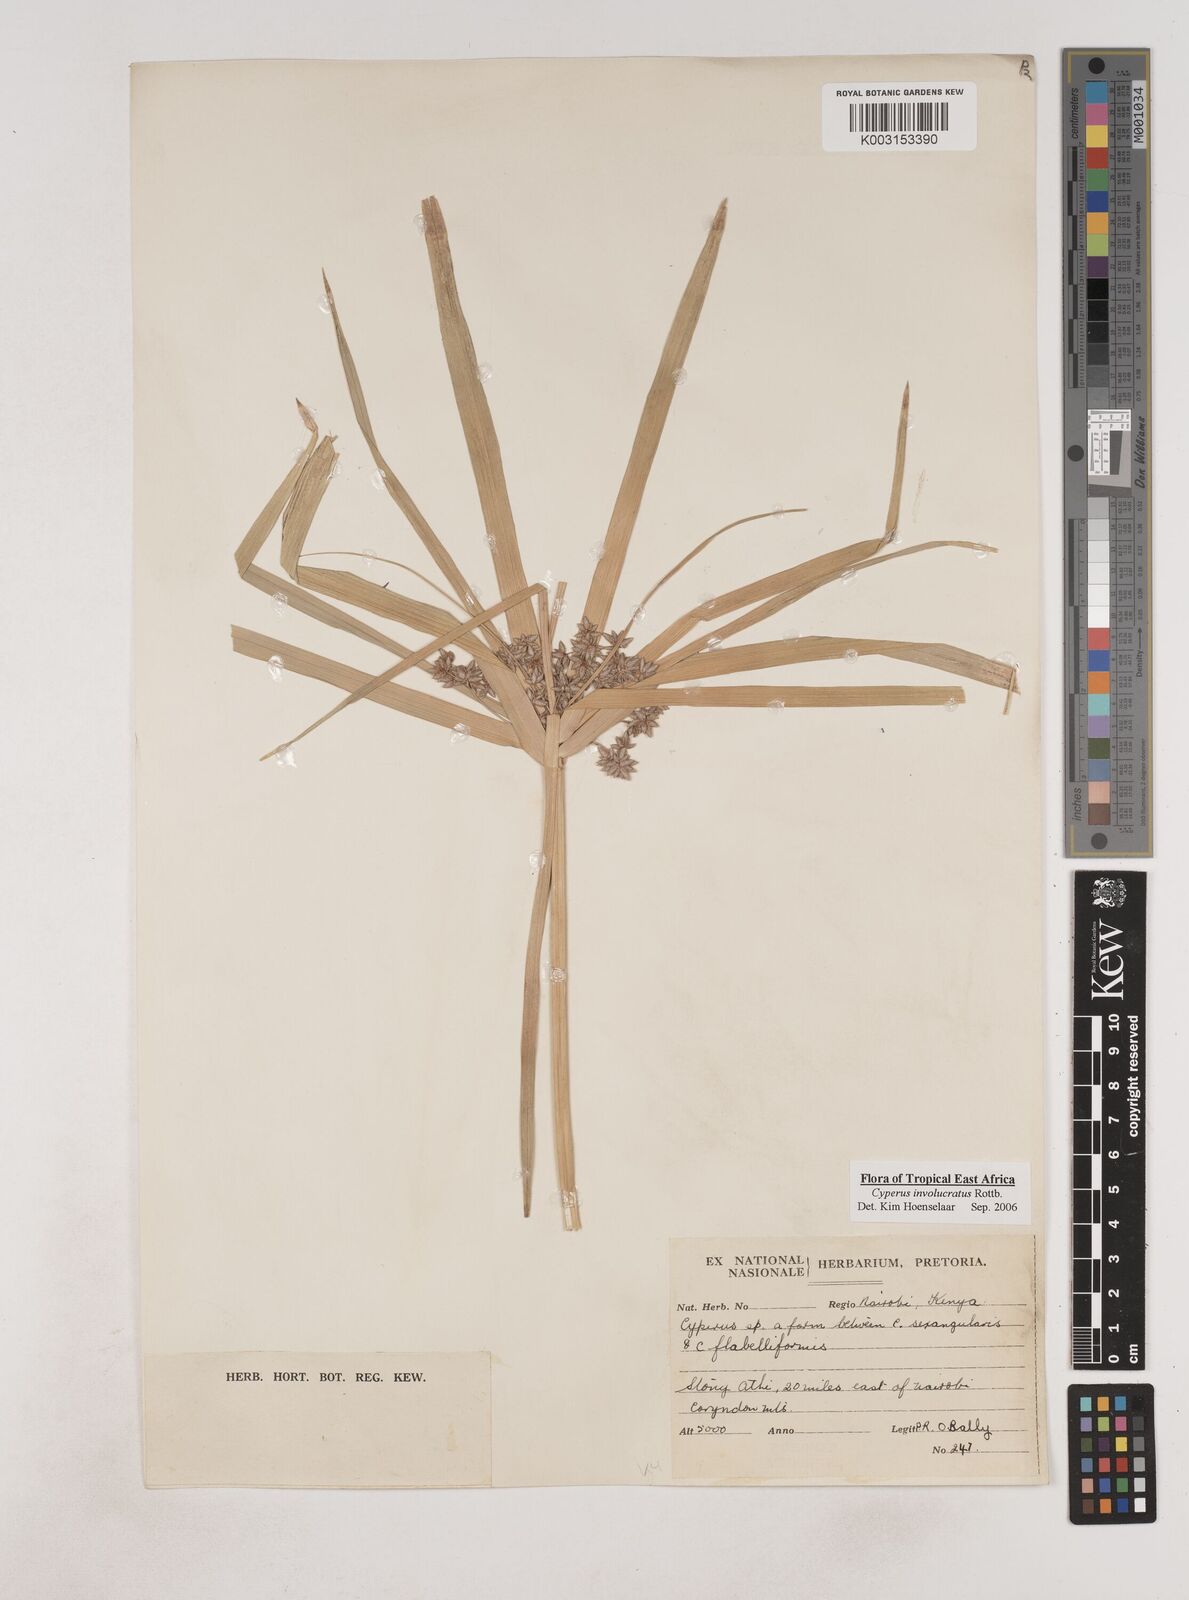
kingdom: Plantae
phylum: Tracheophyta
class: Liliopsida
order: Poales
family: Cyperaceae
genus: Cyperus
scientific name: Cyperus alternifolius
